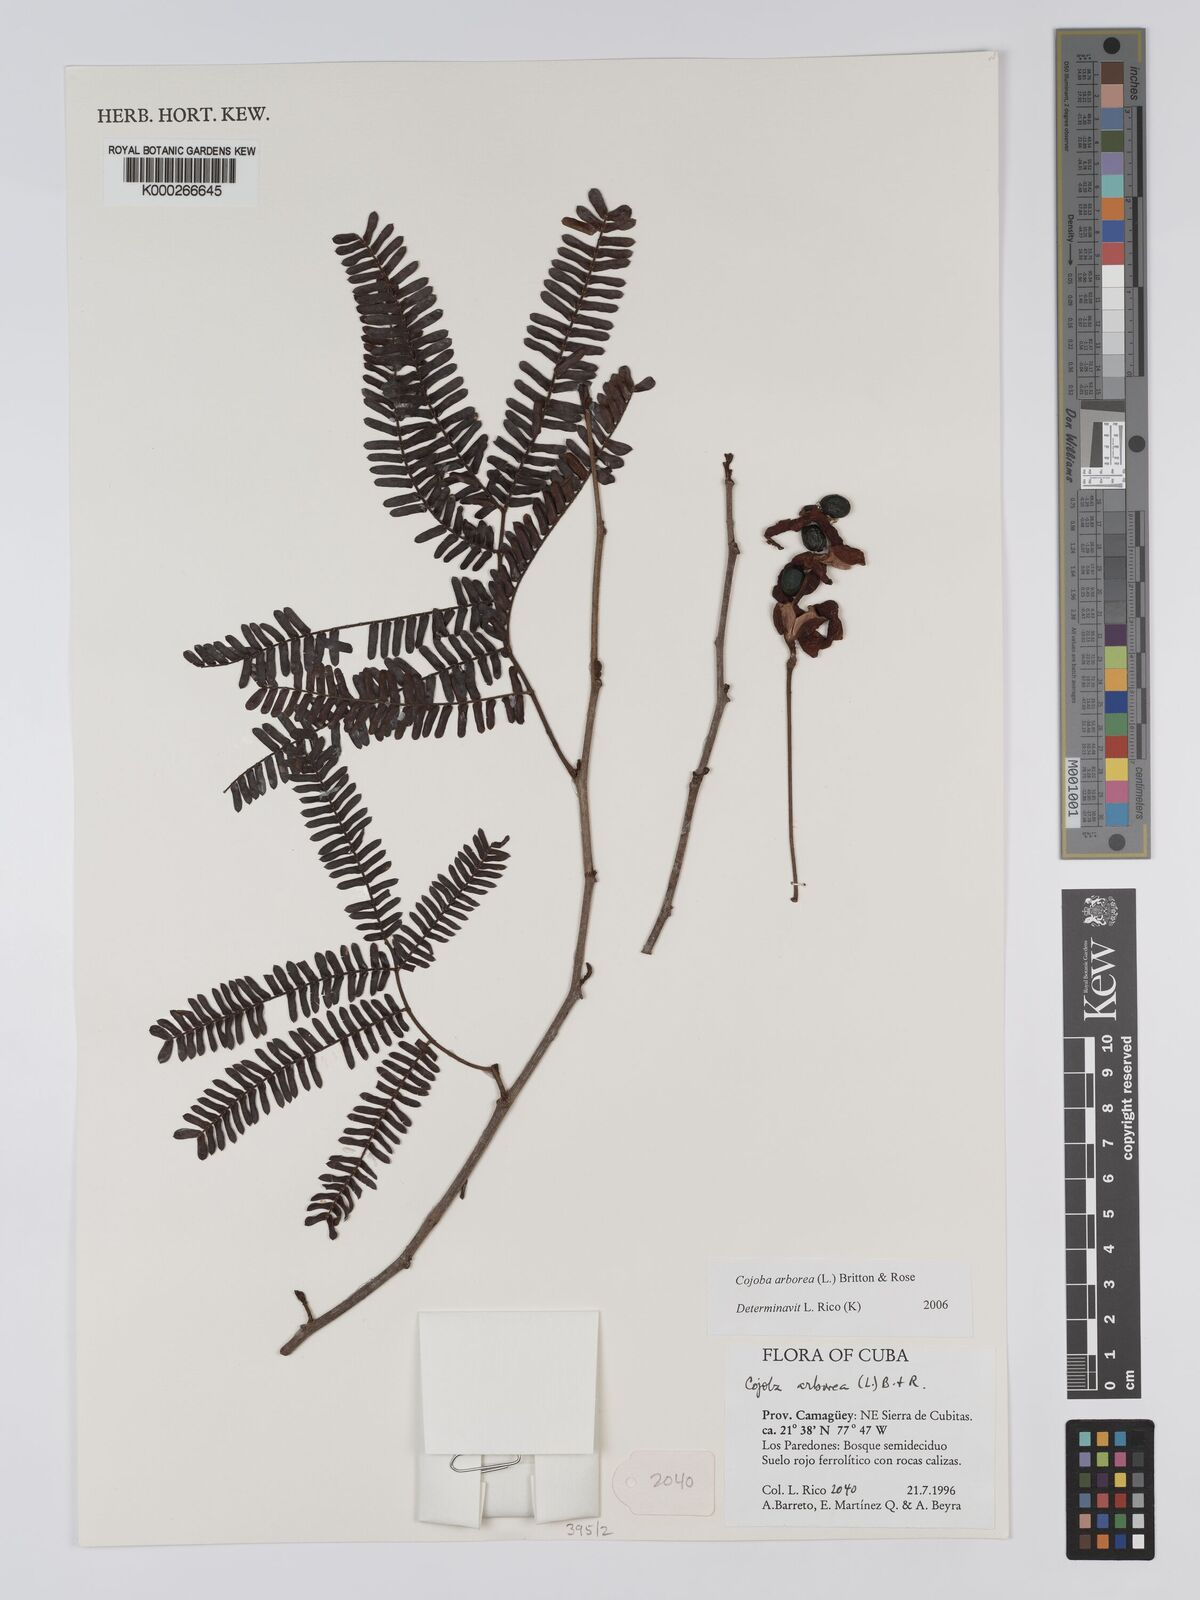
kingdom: Plantae
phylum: Tracheophyta
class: Magnoliopsida
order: Fabales
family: Fabaceae
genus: Cojoba
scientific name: Cojoba arborea
